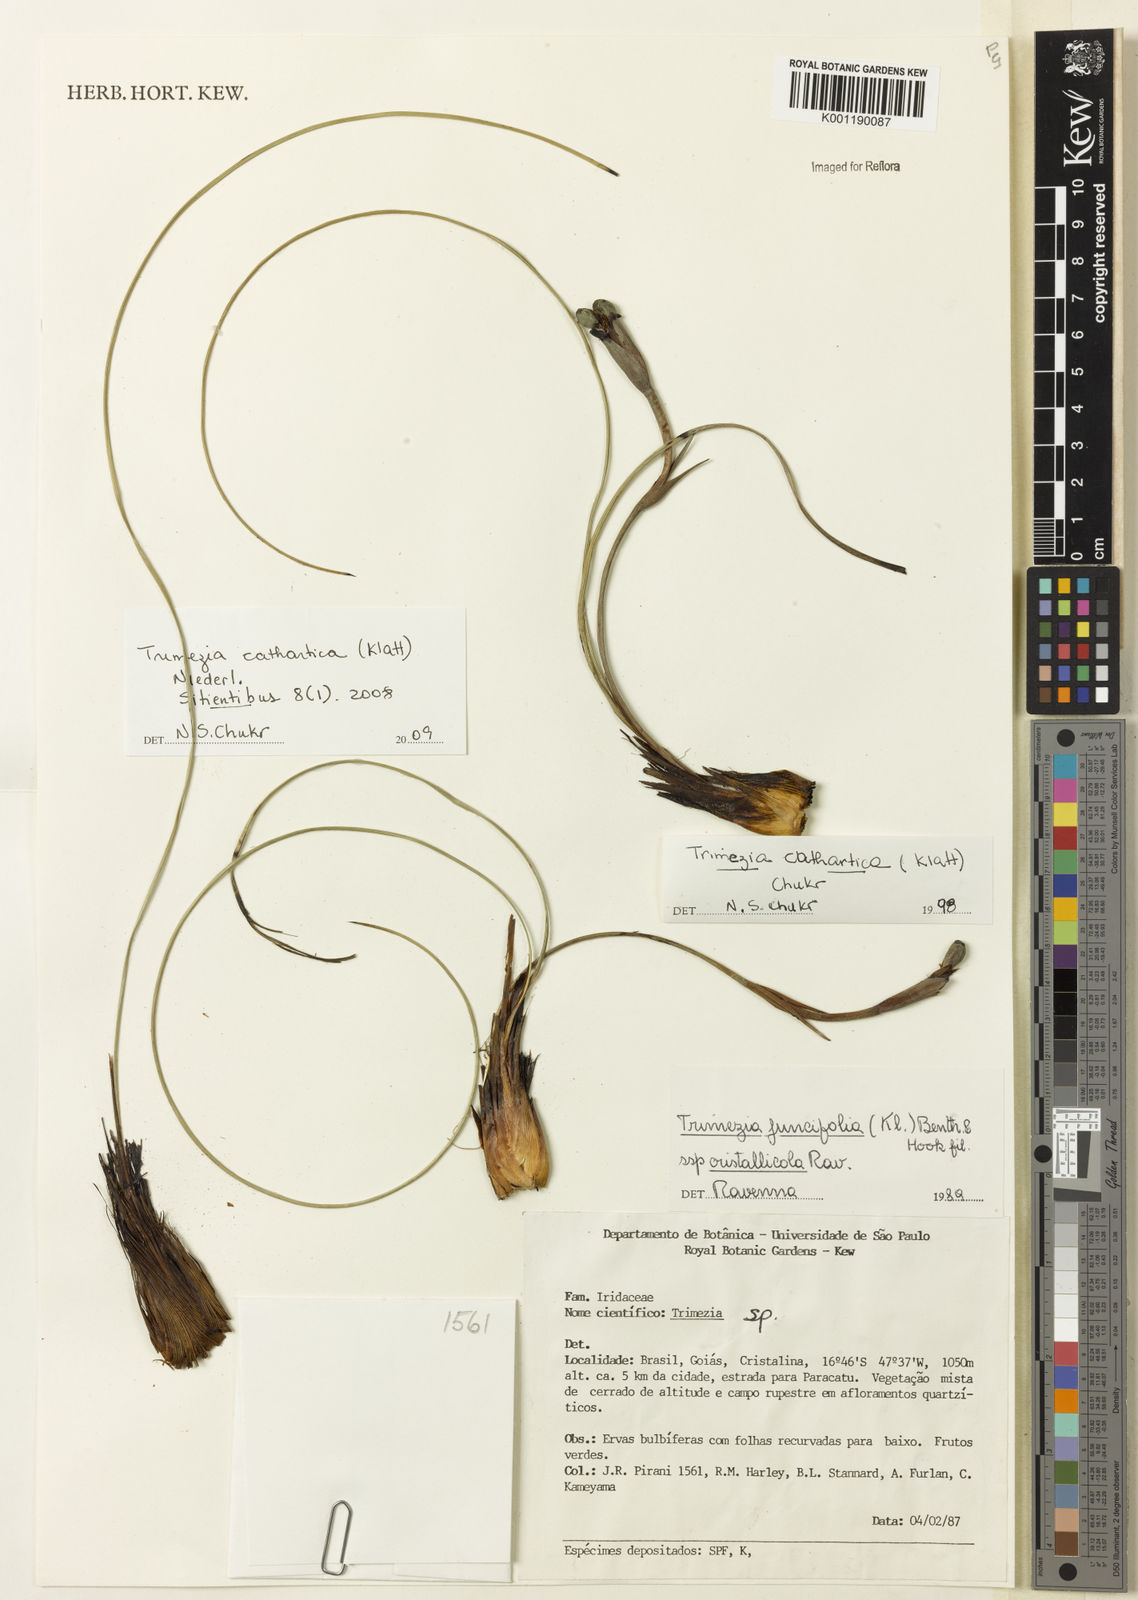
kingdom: Plantae
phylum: Tracheophyta
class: Liliopsida
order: Asparagales
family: Iridaceae
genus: Trimezia
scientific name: Trimezia cathartica
